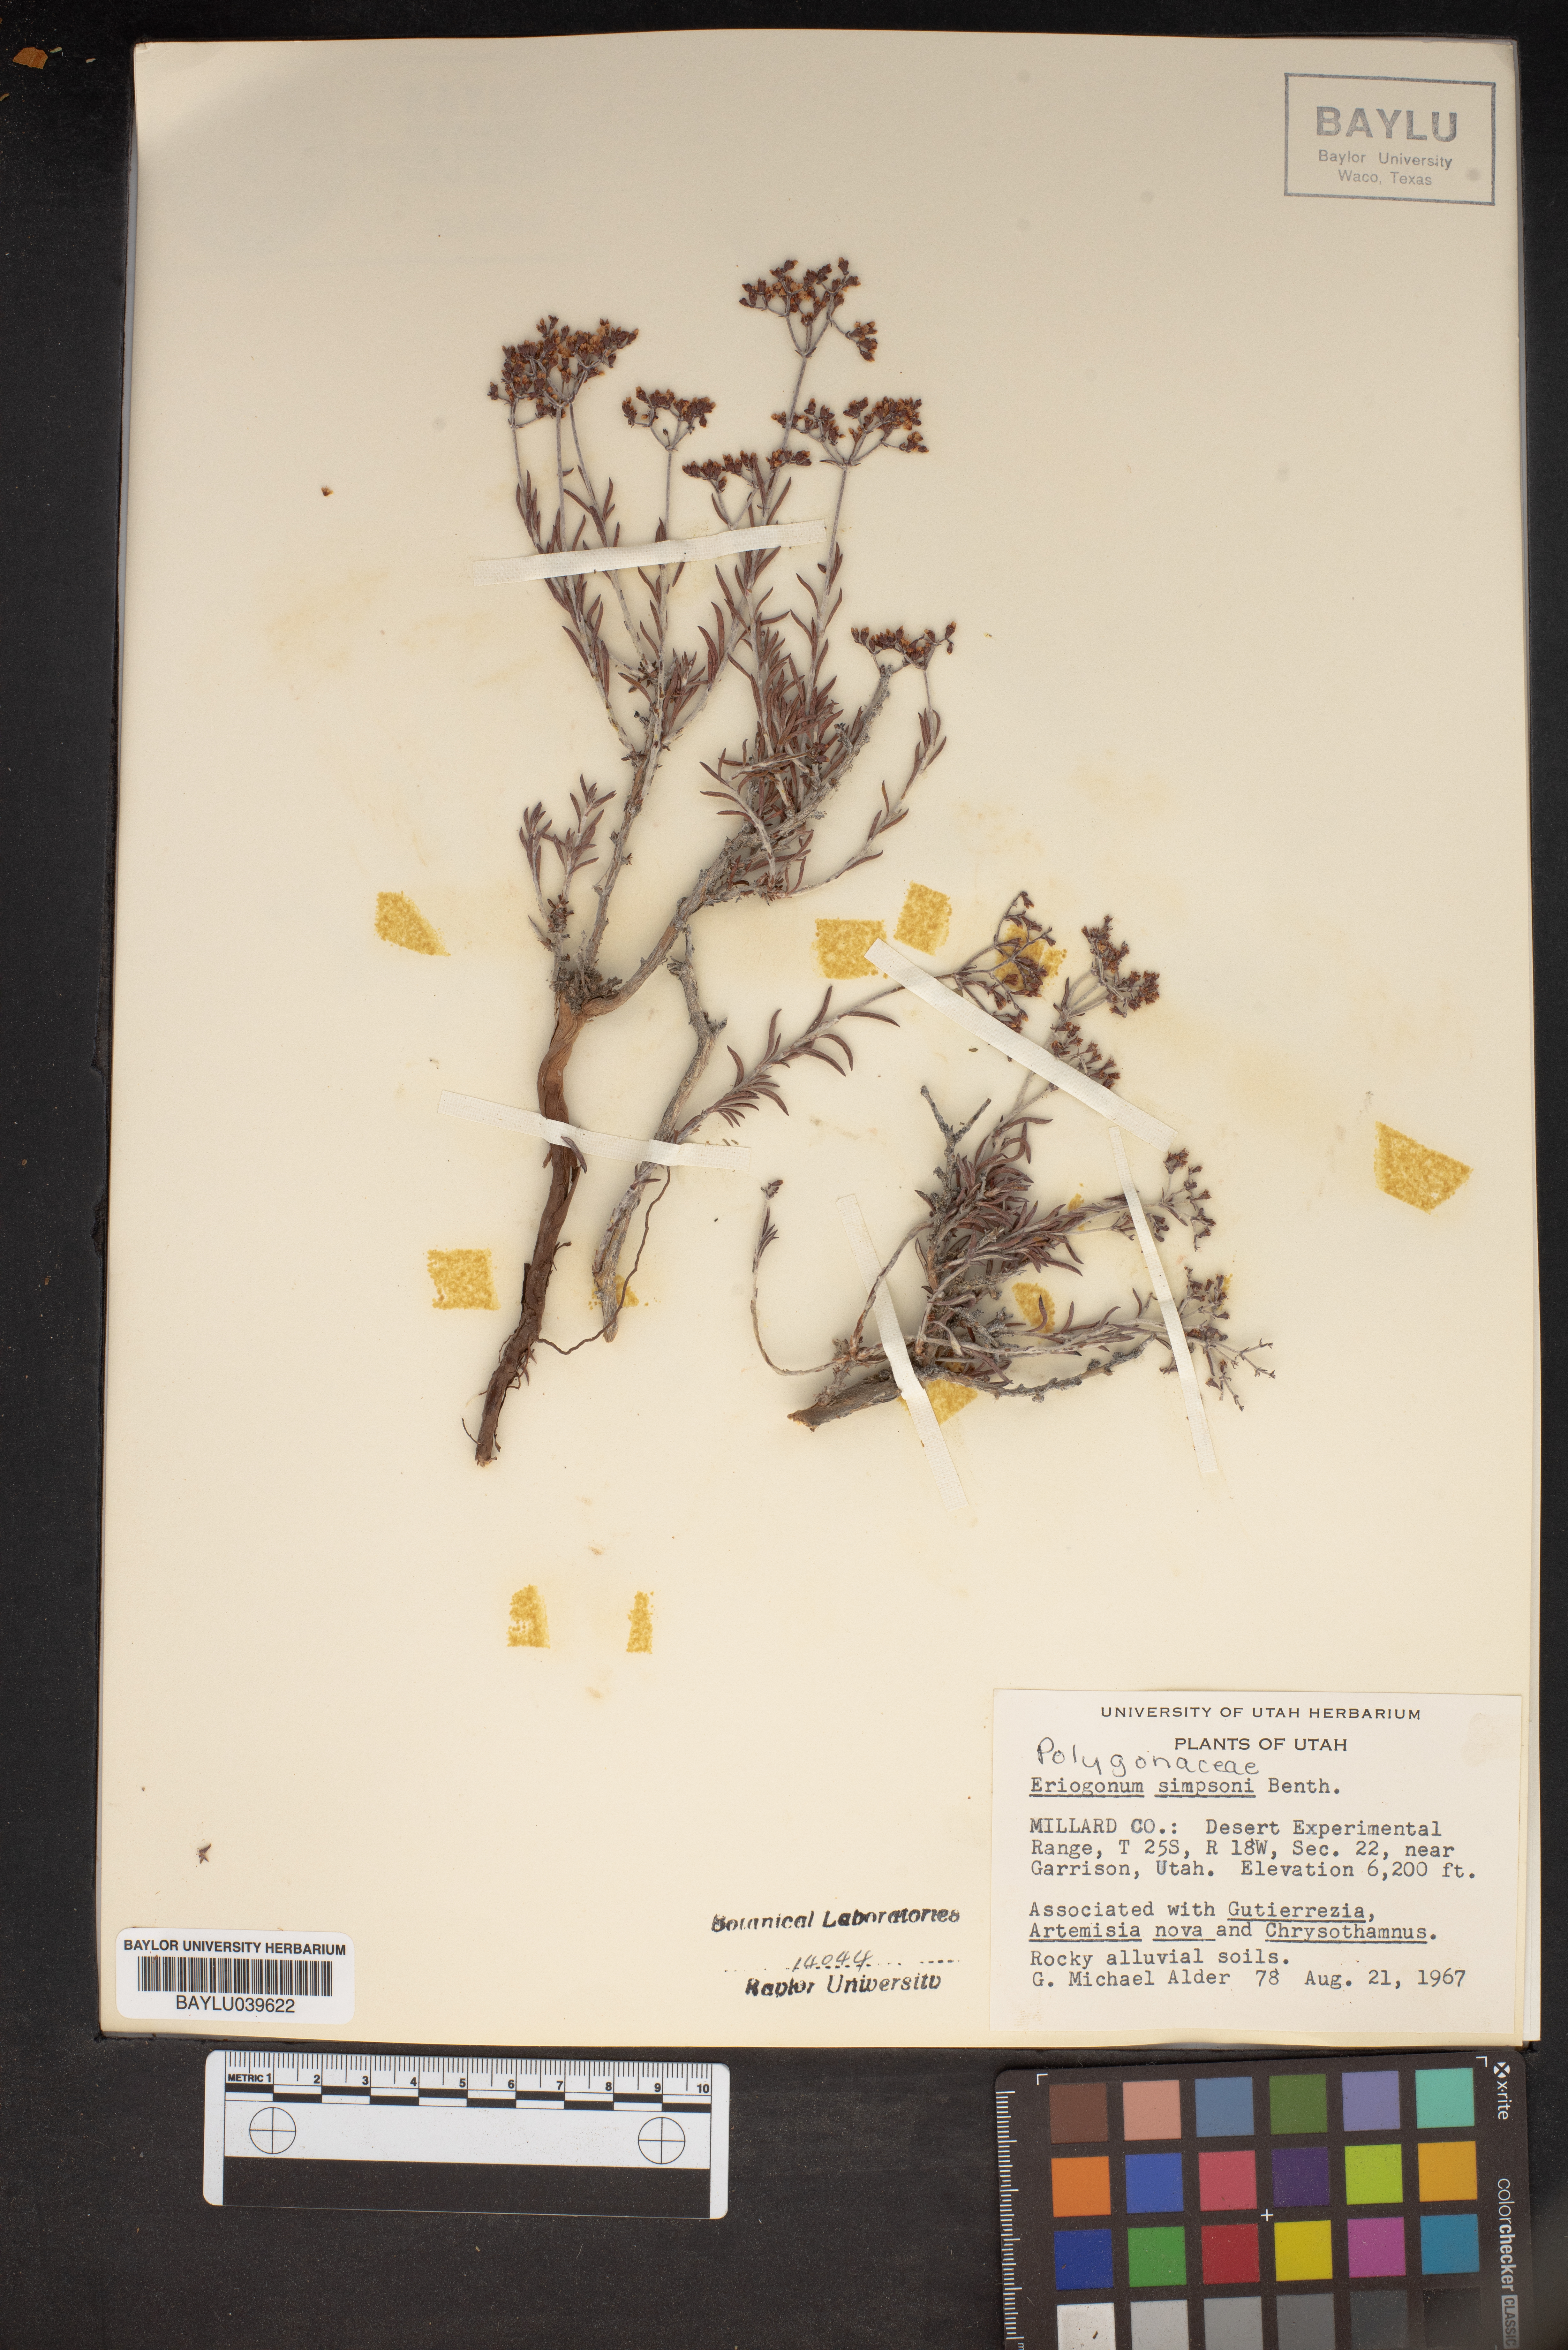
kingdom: Plantae
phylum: Tracheophyta
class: Magnoliopsida
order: Caryophyllales
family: Polygonaceae
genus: Eriogonum
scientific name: Eriogonum microtheca
